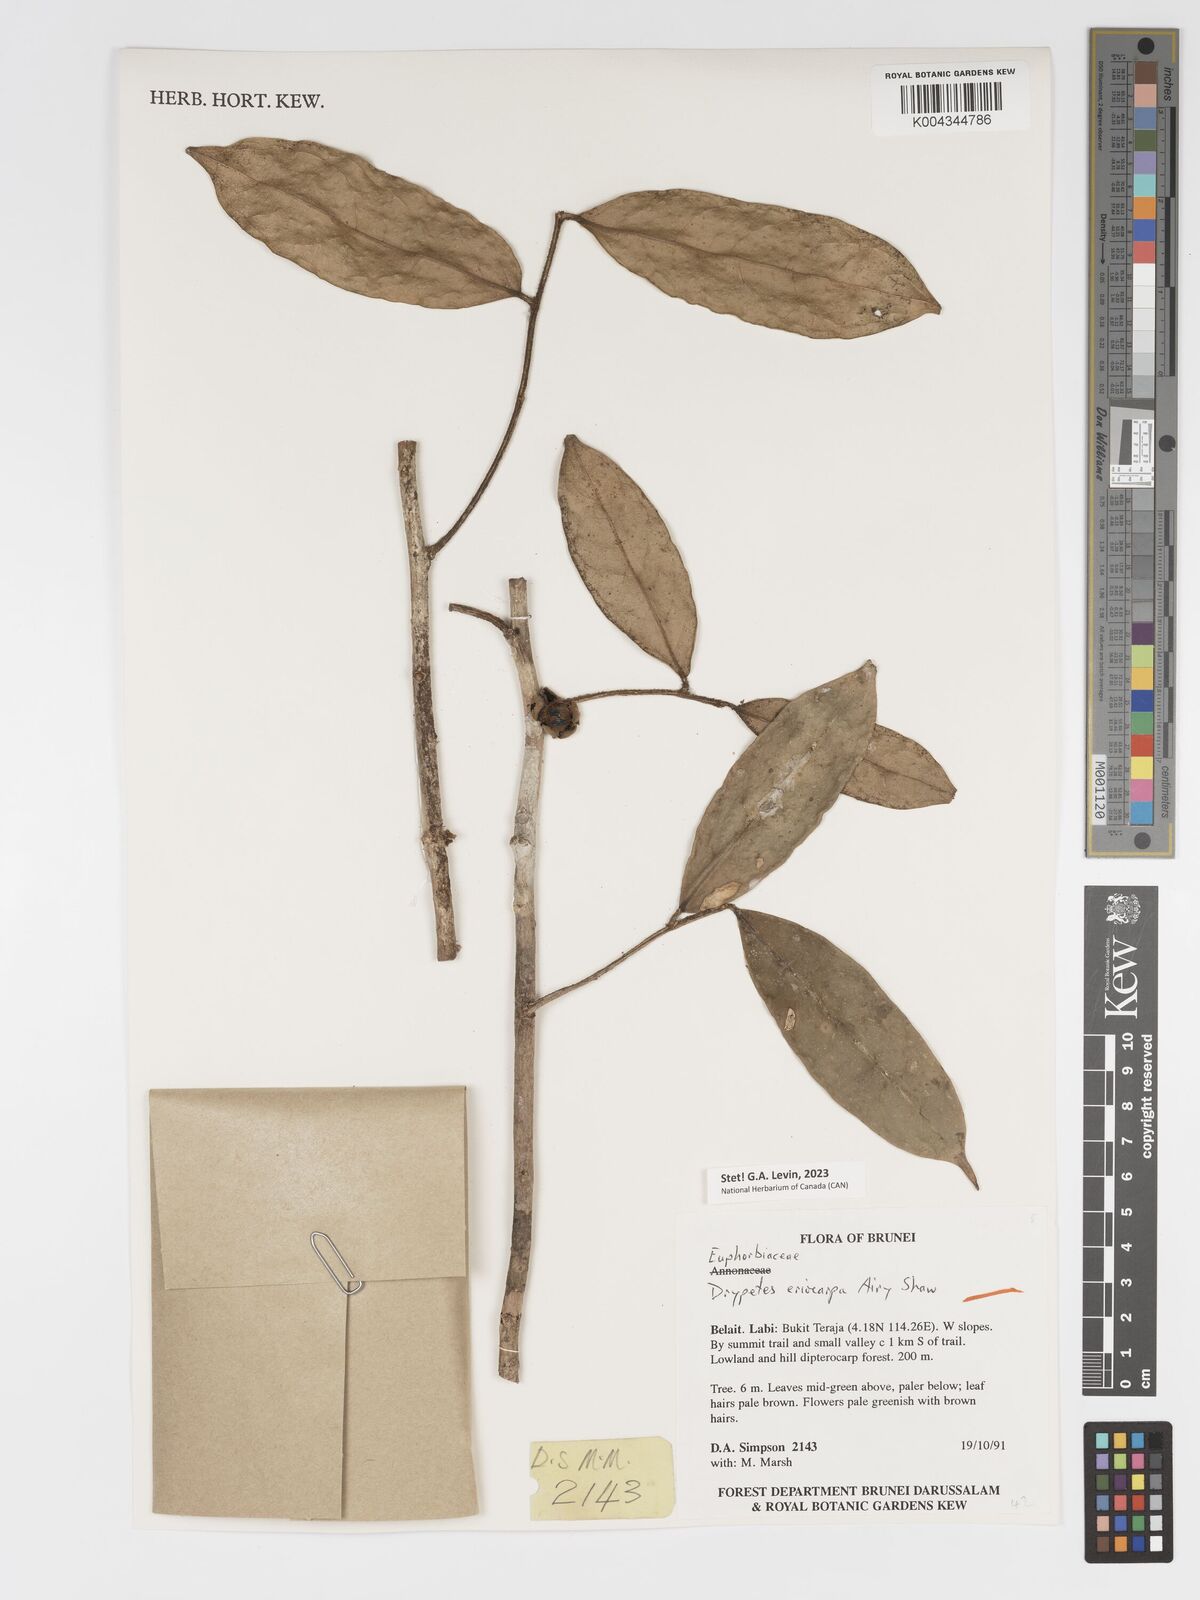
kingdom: Plantae
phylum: Tracheophyta
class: Magnoliopsida
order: Malpighiales
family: Putranjivaceae
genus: Drypetes
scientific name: Drypetes eriocarpa
